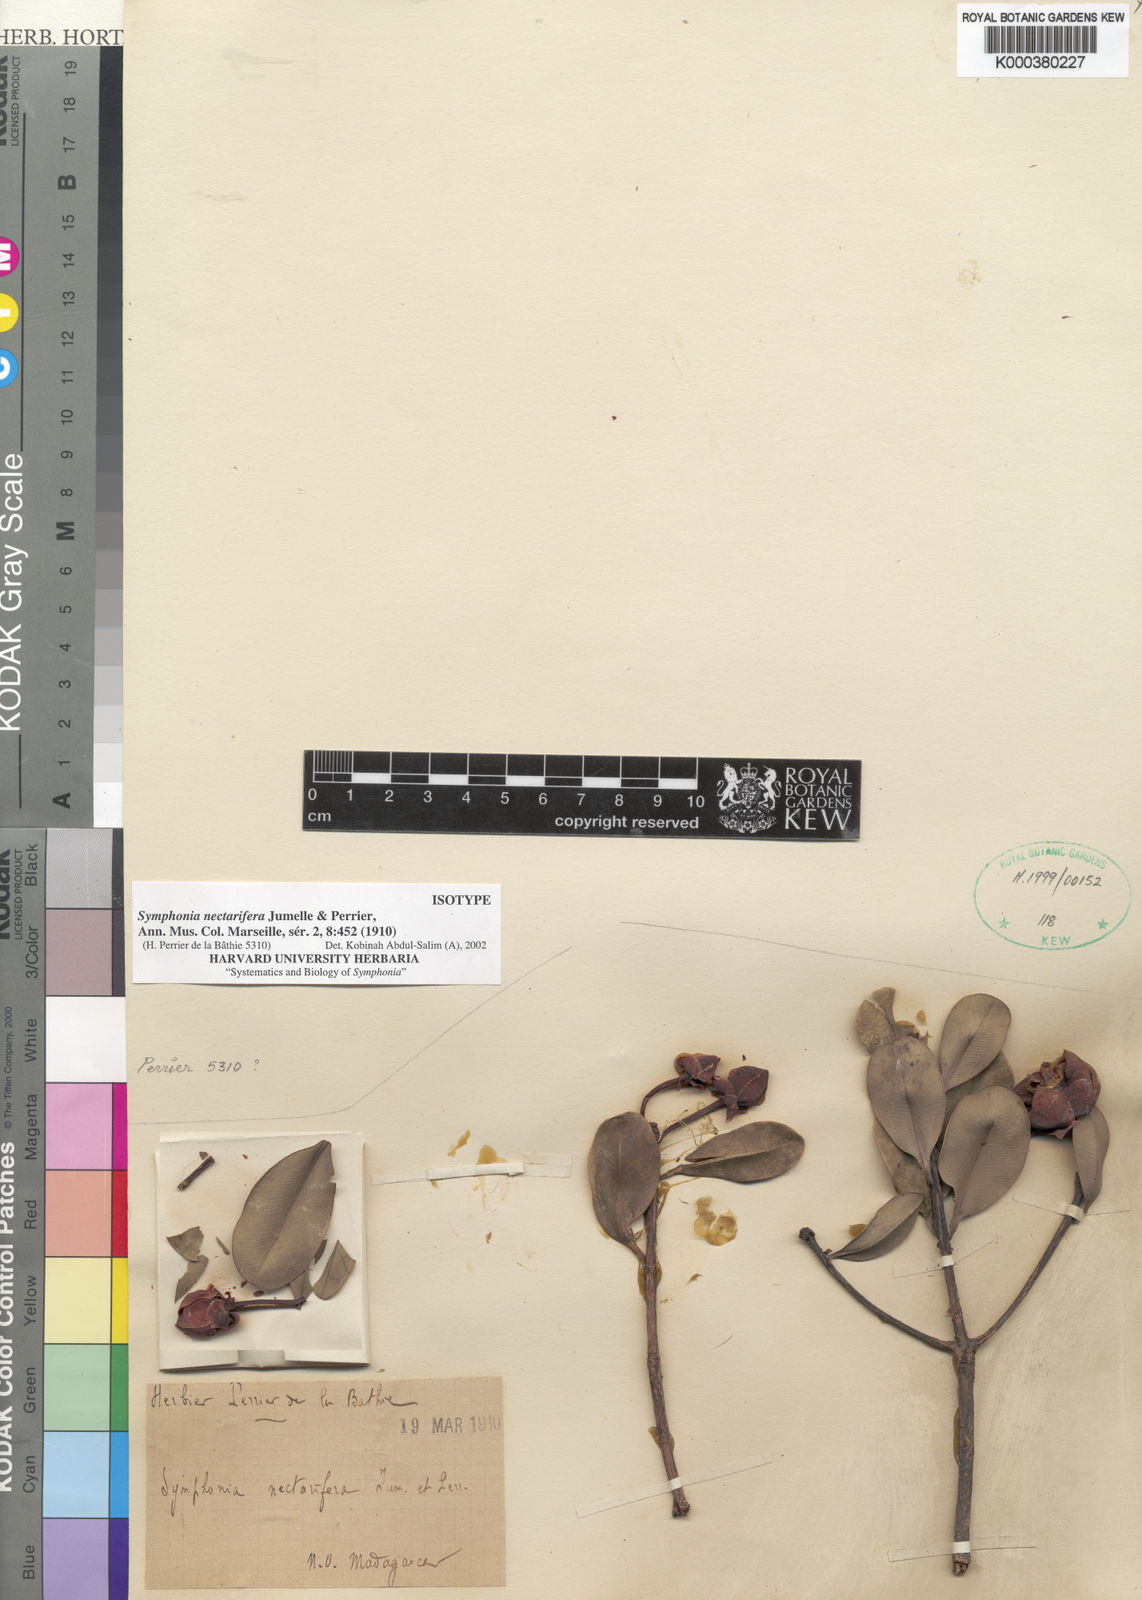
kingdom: Plantae
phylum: Tracheophyta
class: Magnoliopsida
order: Malpighiales
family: Clusiaceae
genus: Symphonia
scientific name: Symphonia
